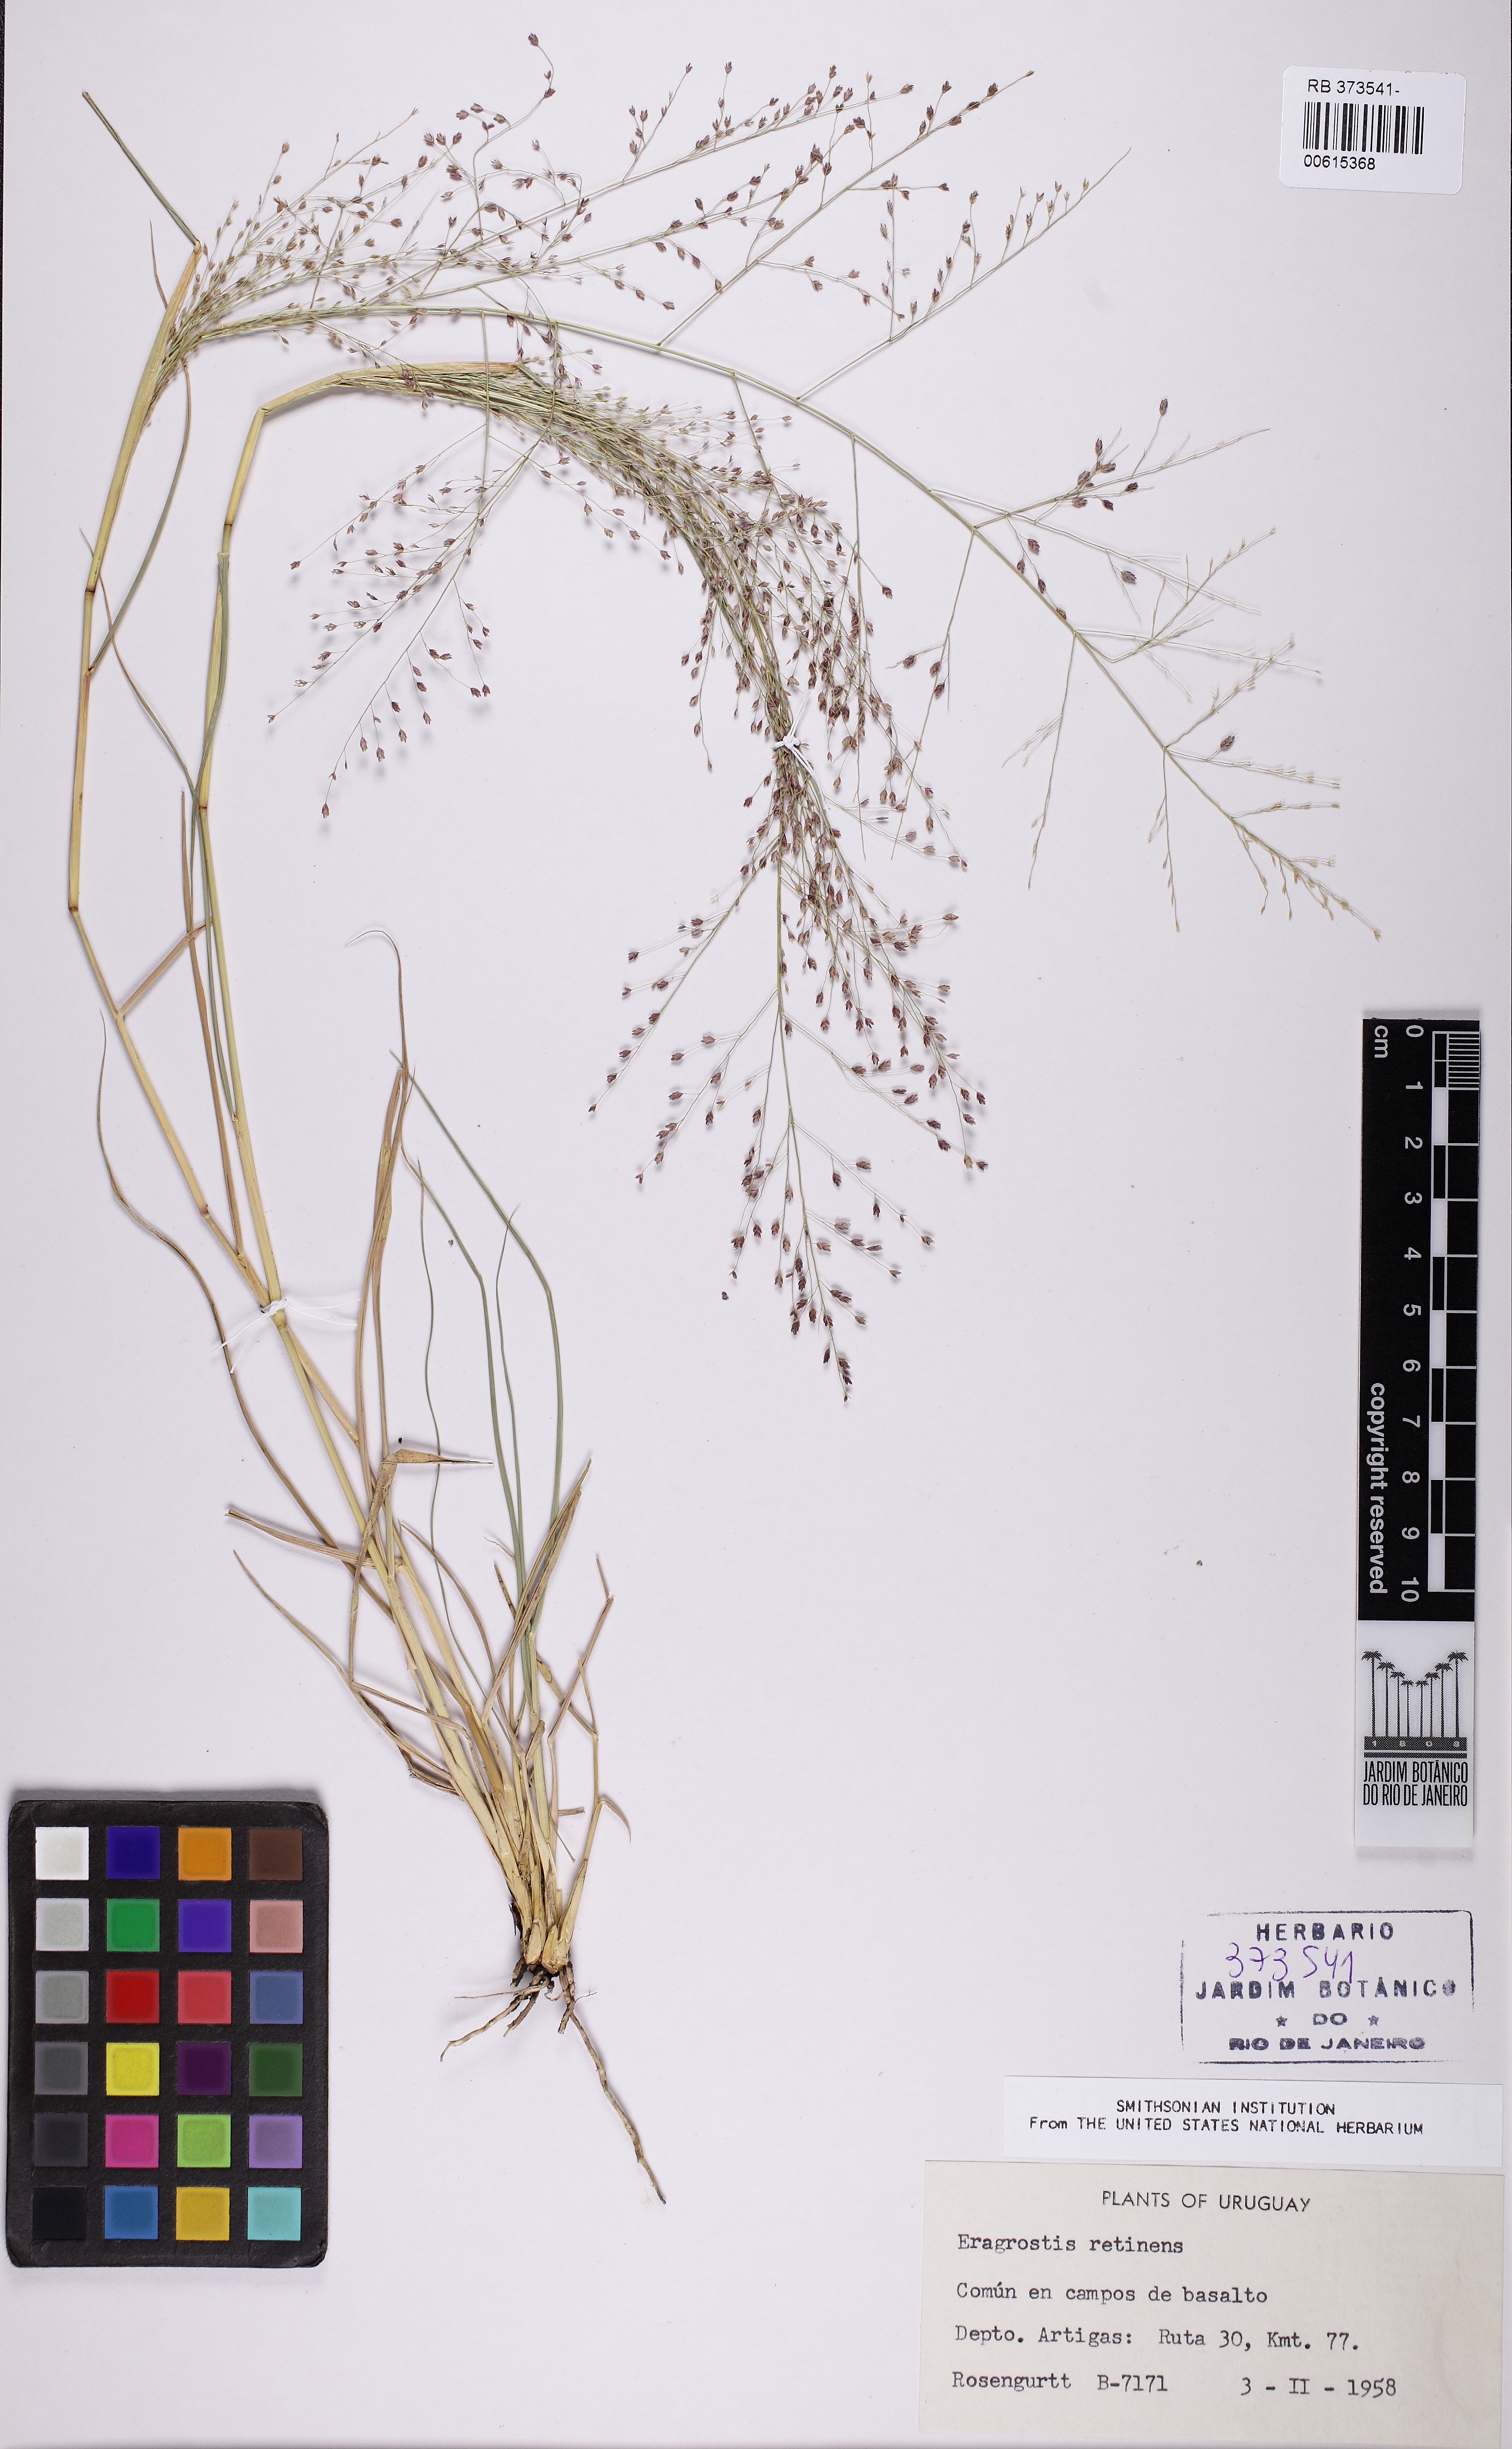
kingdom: Plantae
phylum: Tracheophyta
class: Liliopsida
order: Poales
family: Poaceae
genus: Eragrostis
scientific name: Eragrostis retinens
